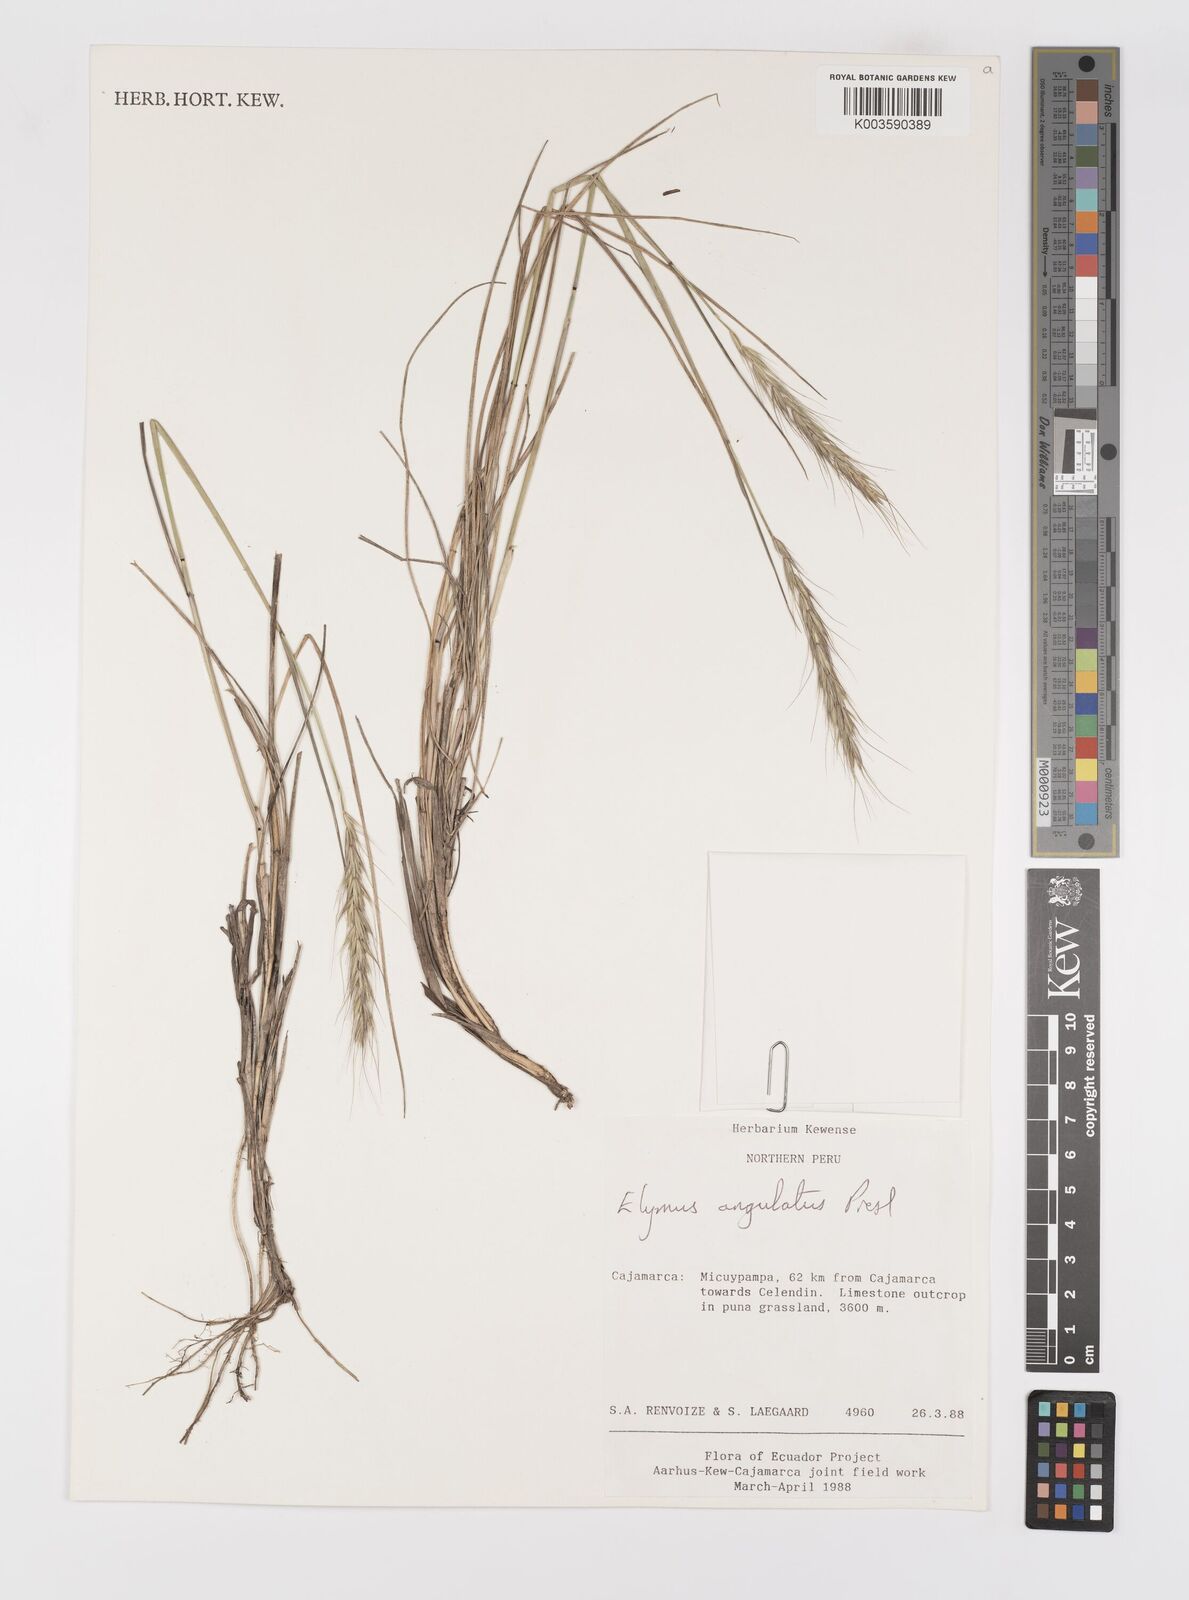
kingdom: Plantae
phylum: Tracheophyta
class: Liliopsida
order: Poales
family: Poaceae
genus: Elymus
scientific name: Elymus angulatus
